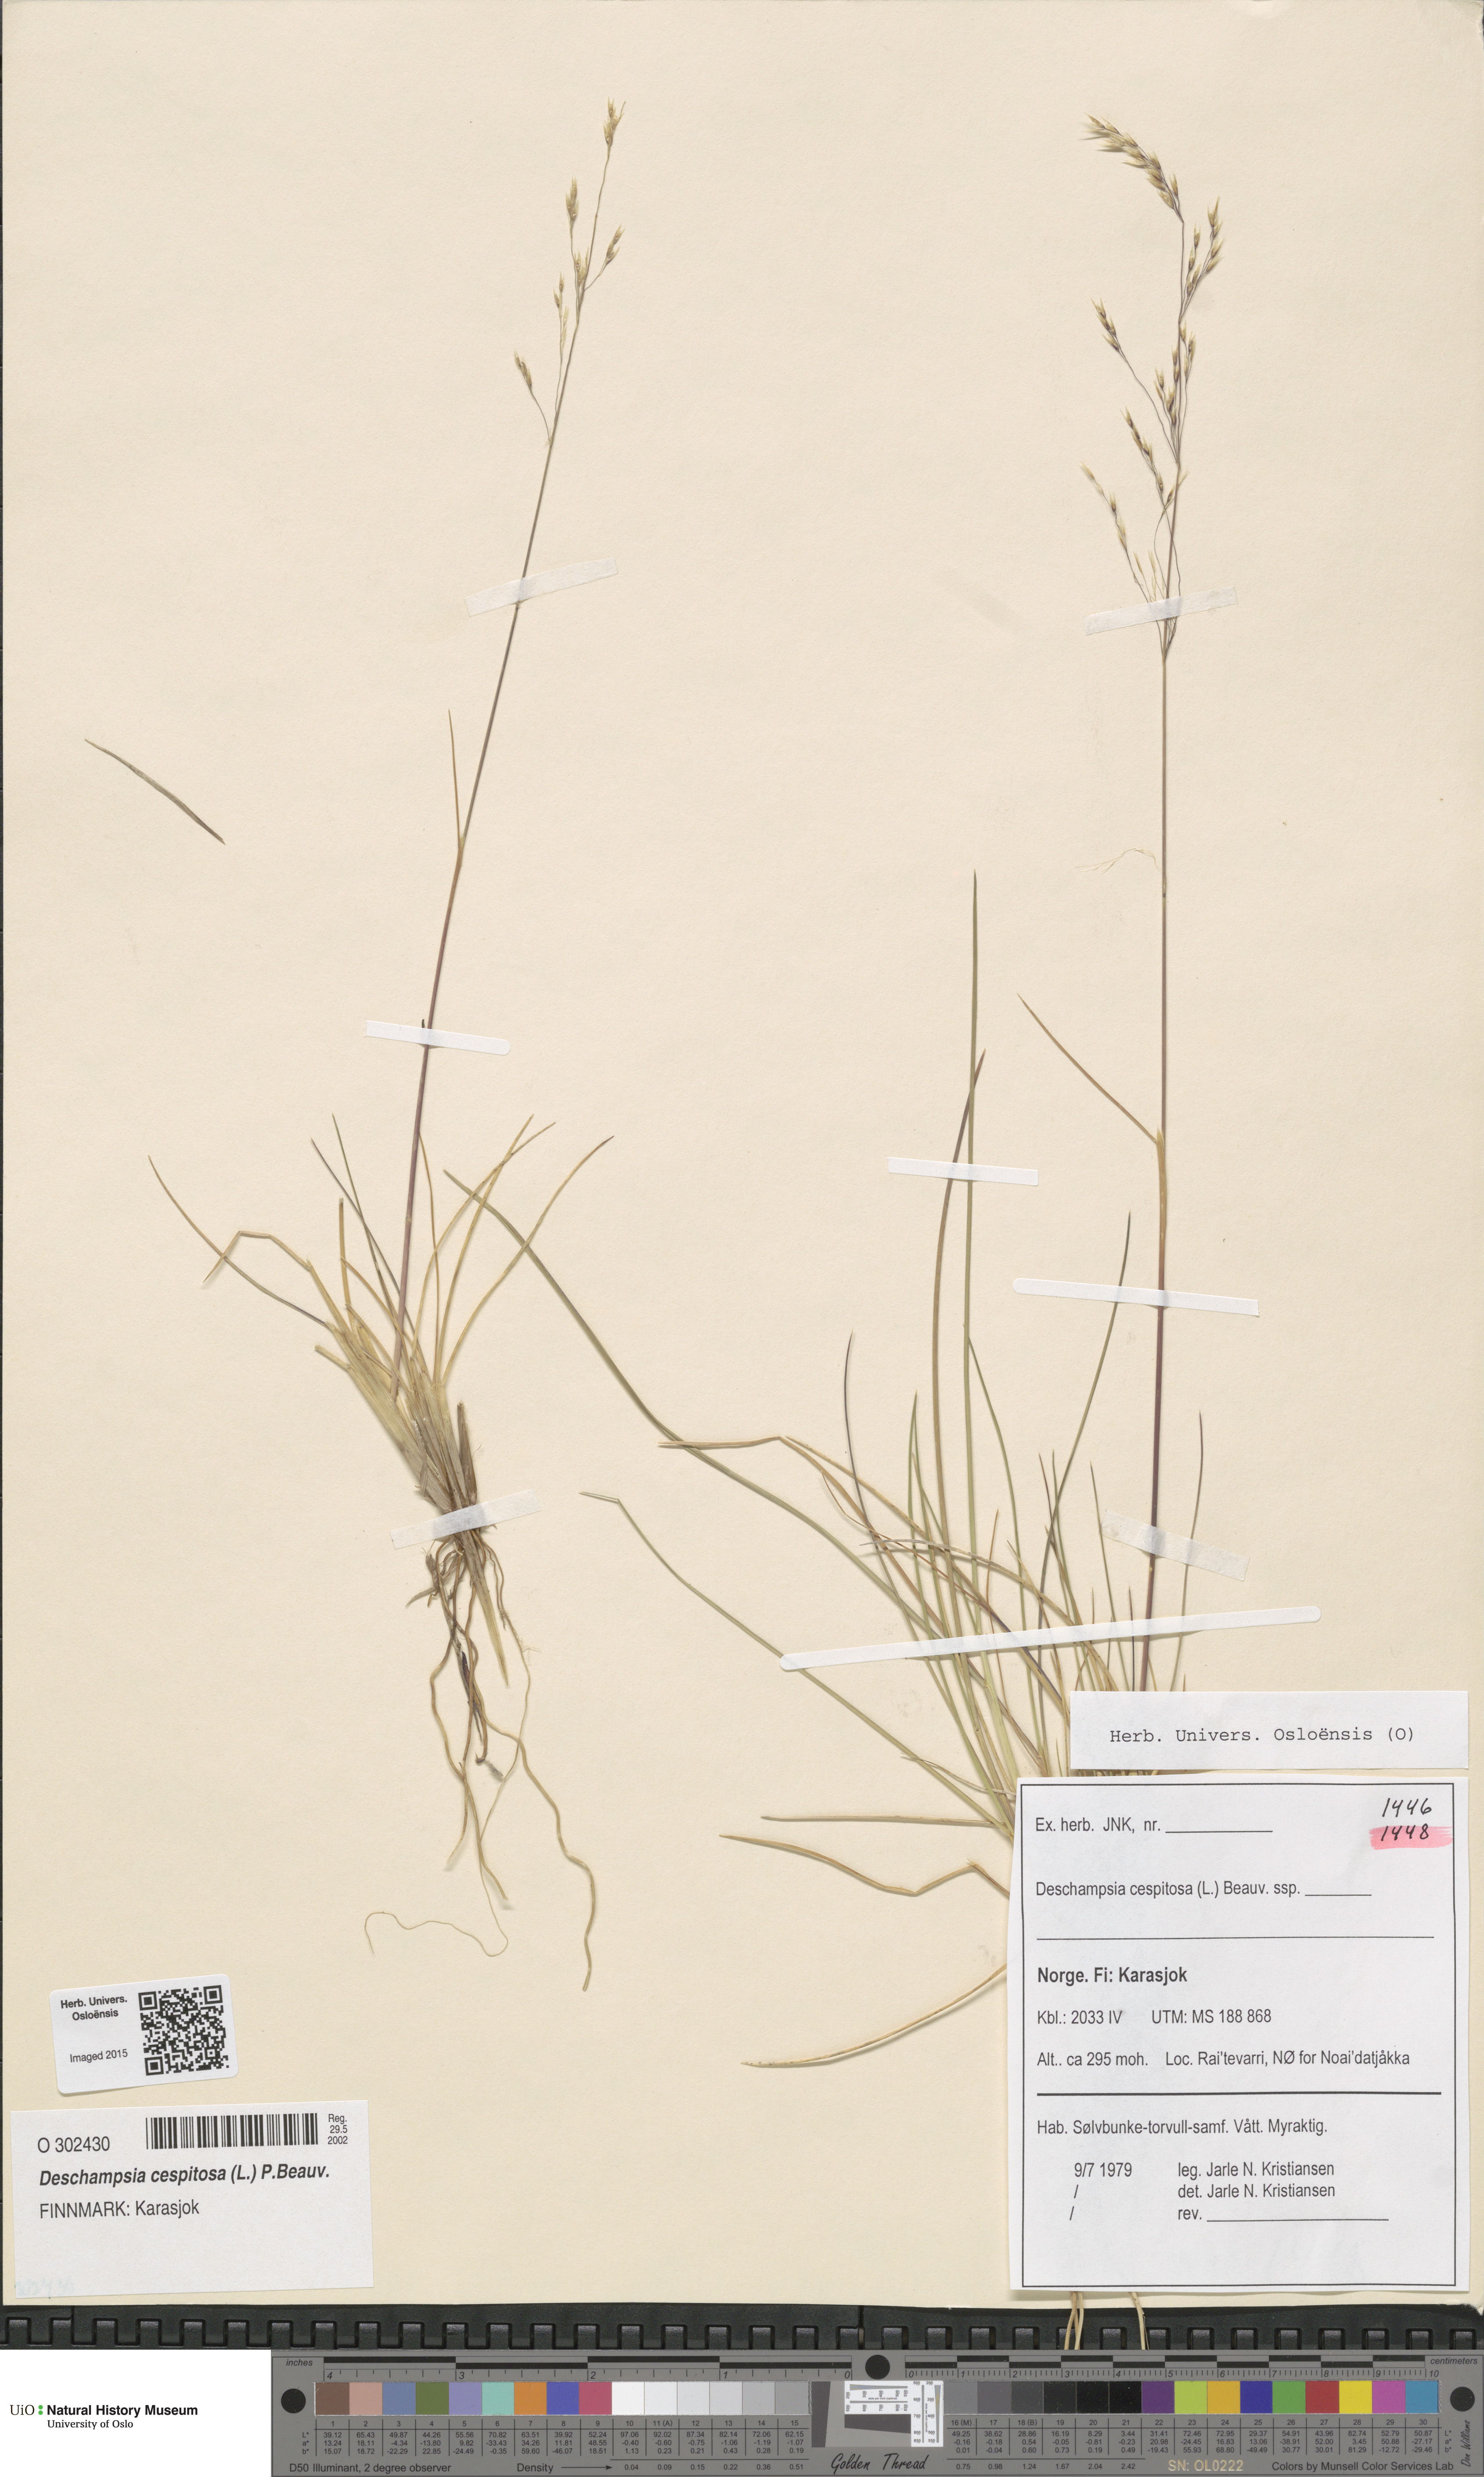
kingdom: Plantae
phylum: Tracheophyta
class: Liliopsida
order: Poales
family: Poaceae
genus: Deschampsia
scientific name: Deschampsia cespitosa
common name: Tufted hair-grass
